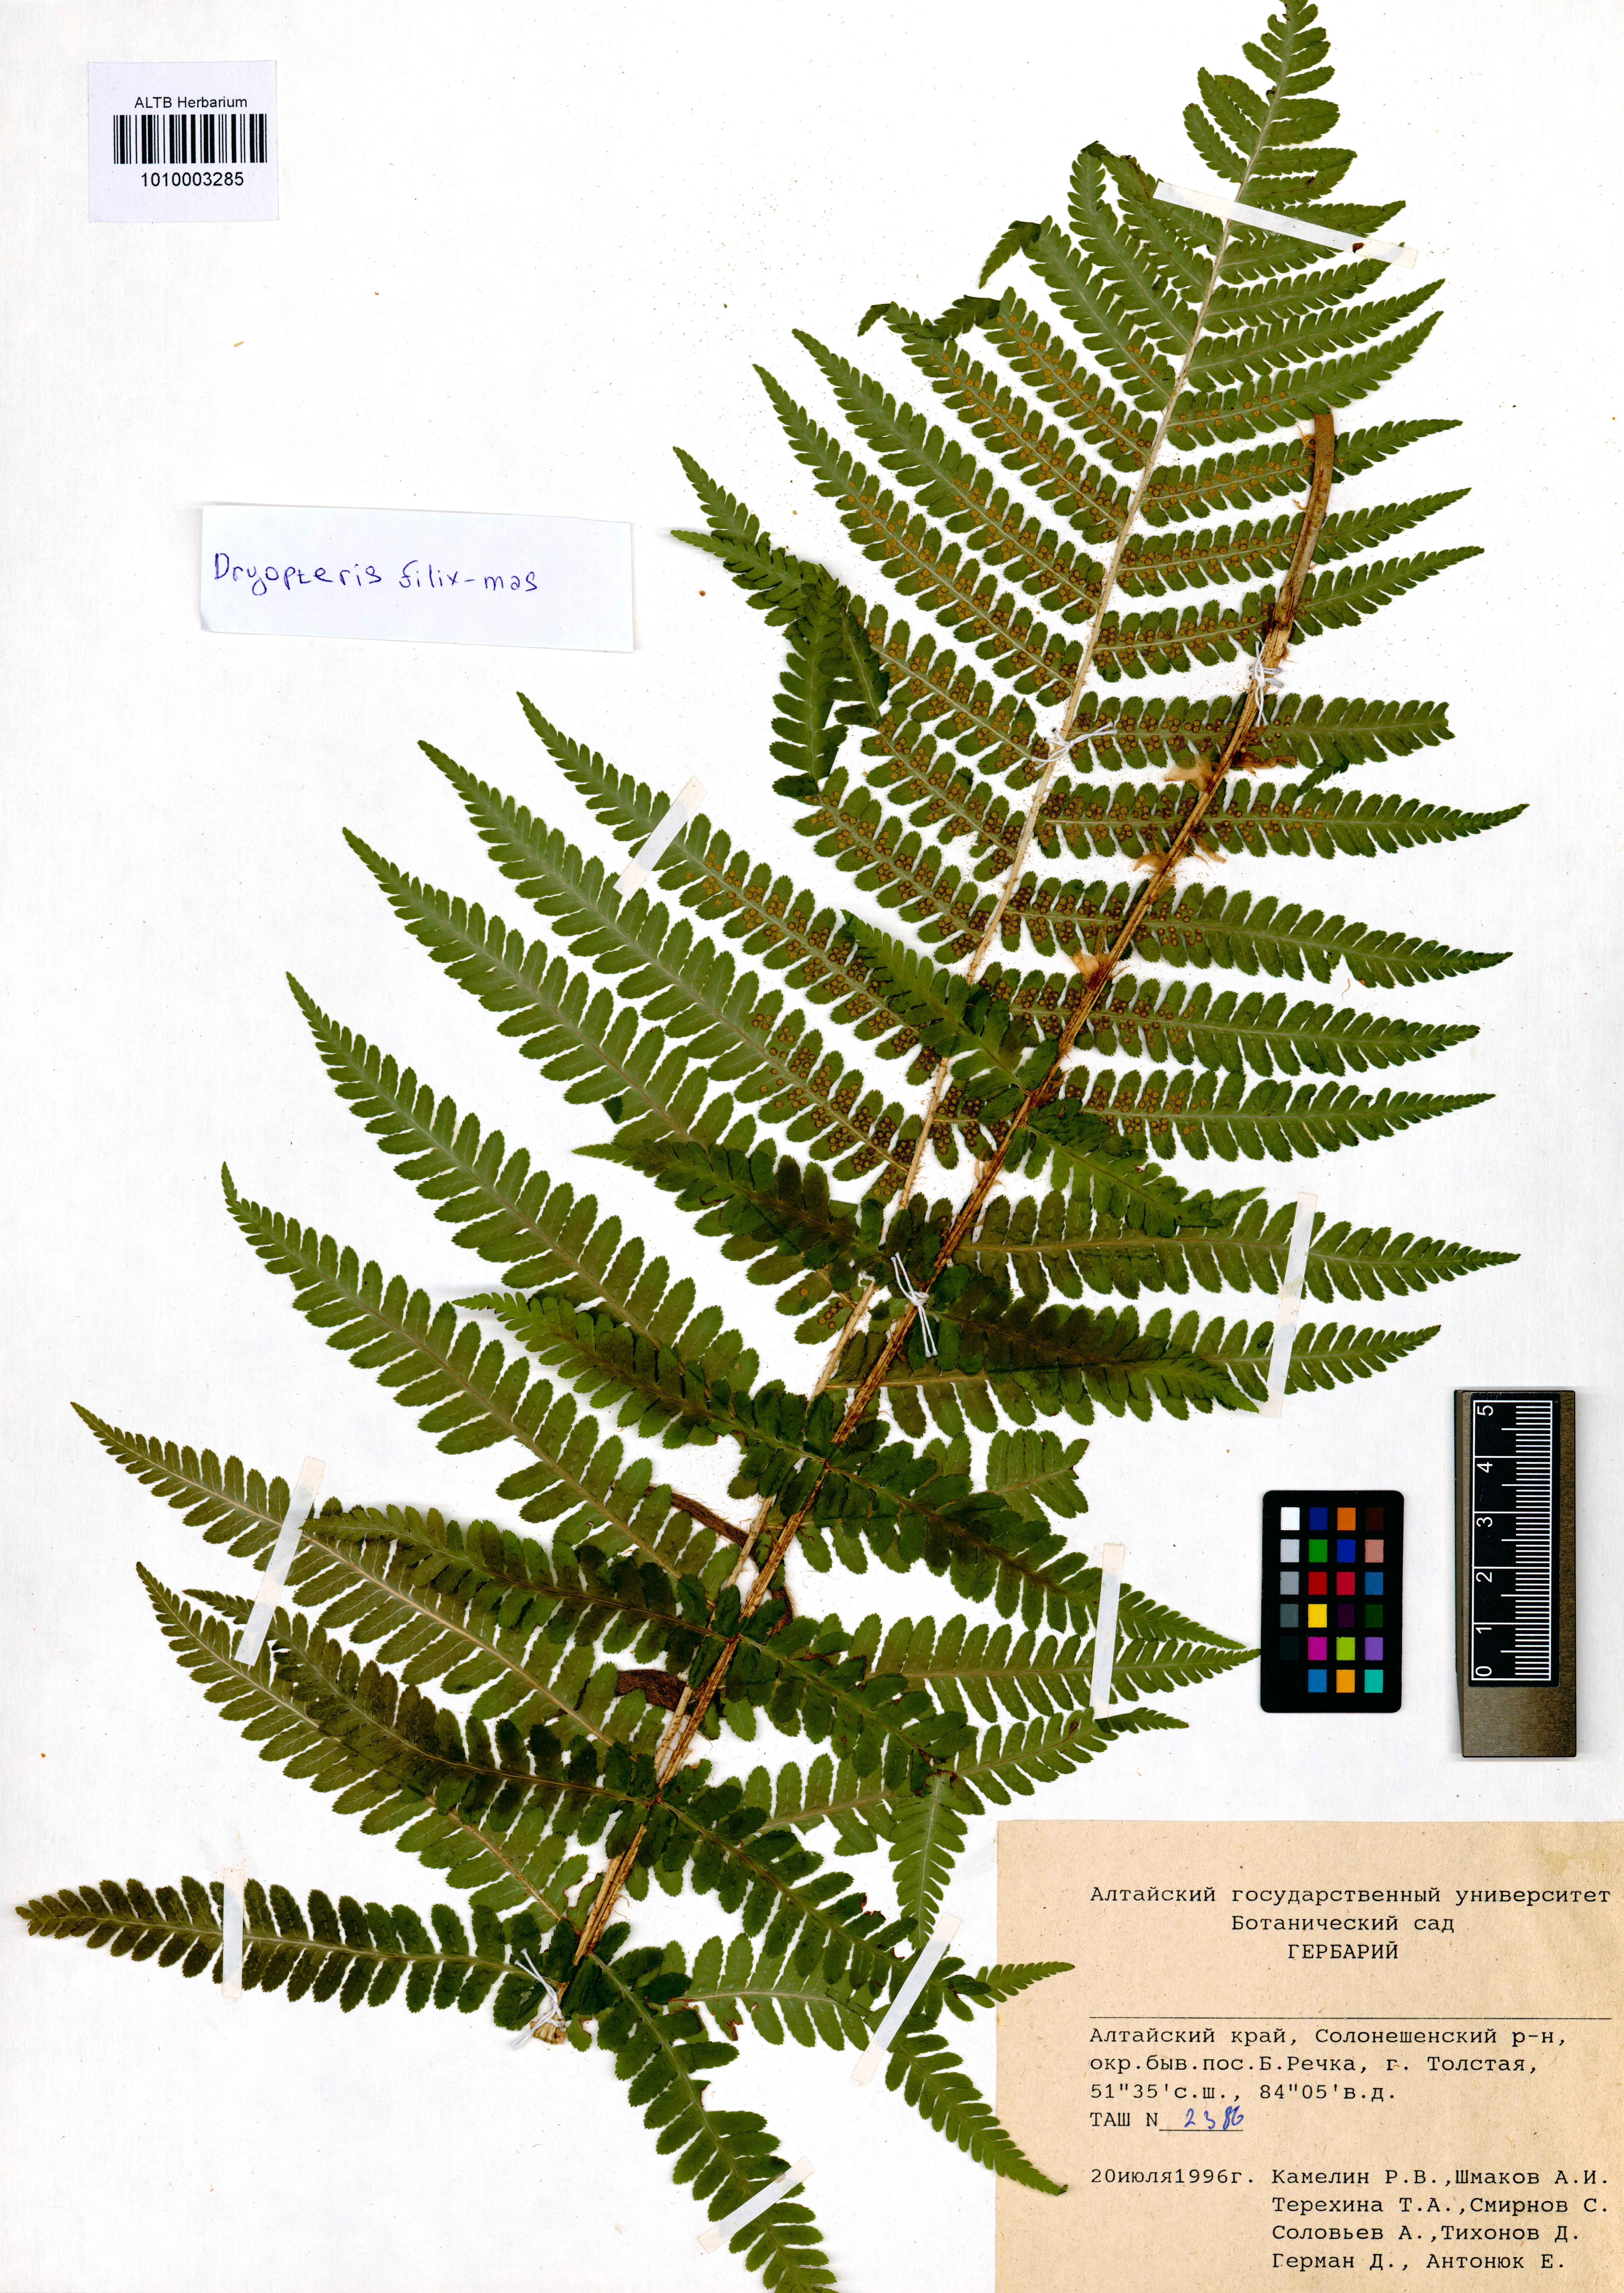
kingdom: Plantae
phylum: Tracheophyta
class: Polypodiopsida
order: Polypodiales
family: Dryopteridaceae
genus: Dryopteris
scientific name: Dryopteris filix-mas
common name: Male fern
